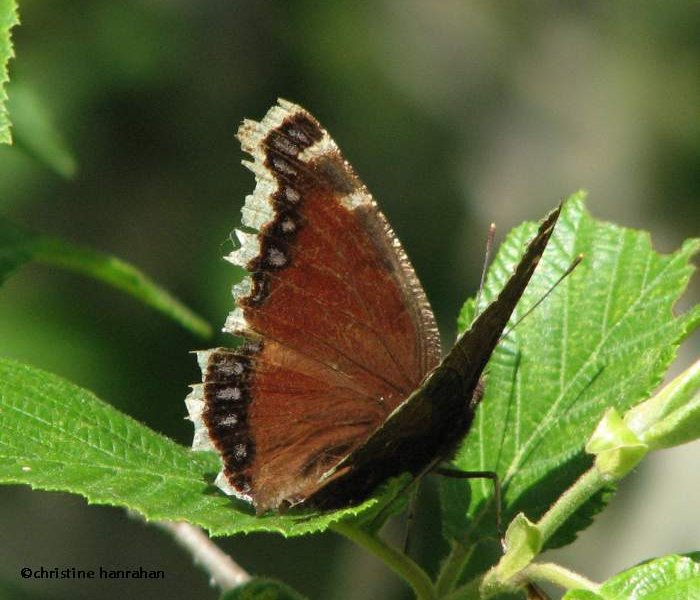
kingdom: Animalia
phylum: Arthropoda
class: Insecta
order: Lepidoptera
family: Nymphalidae
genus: Nymphalis
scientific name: Nymphalis antiopa
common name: Mourning Cloak
